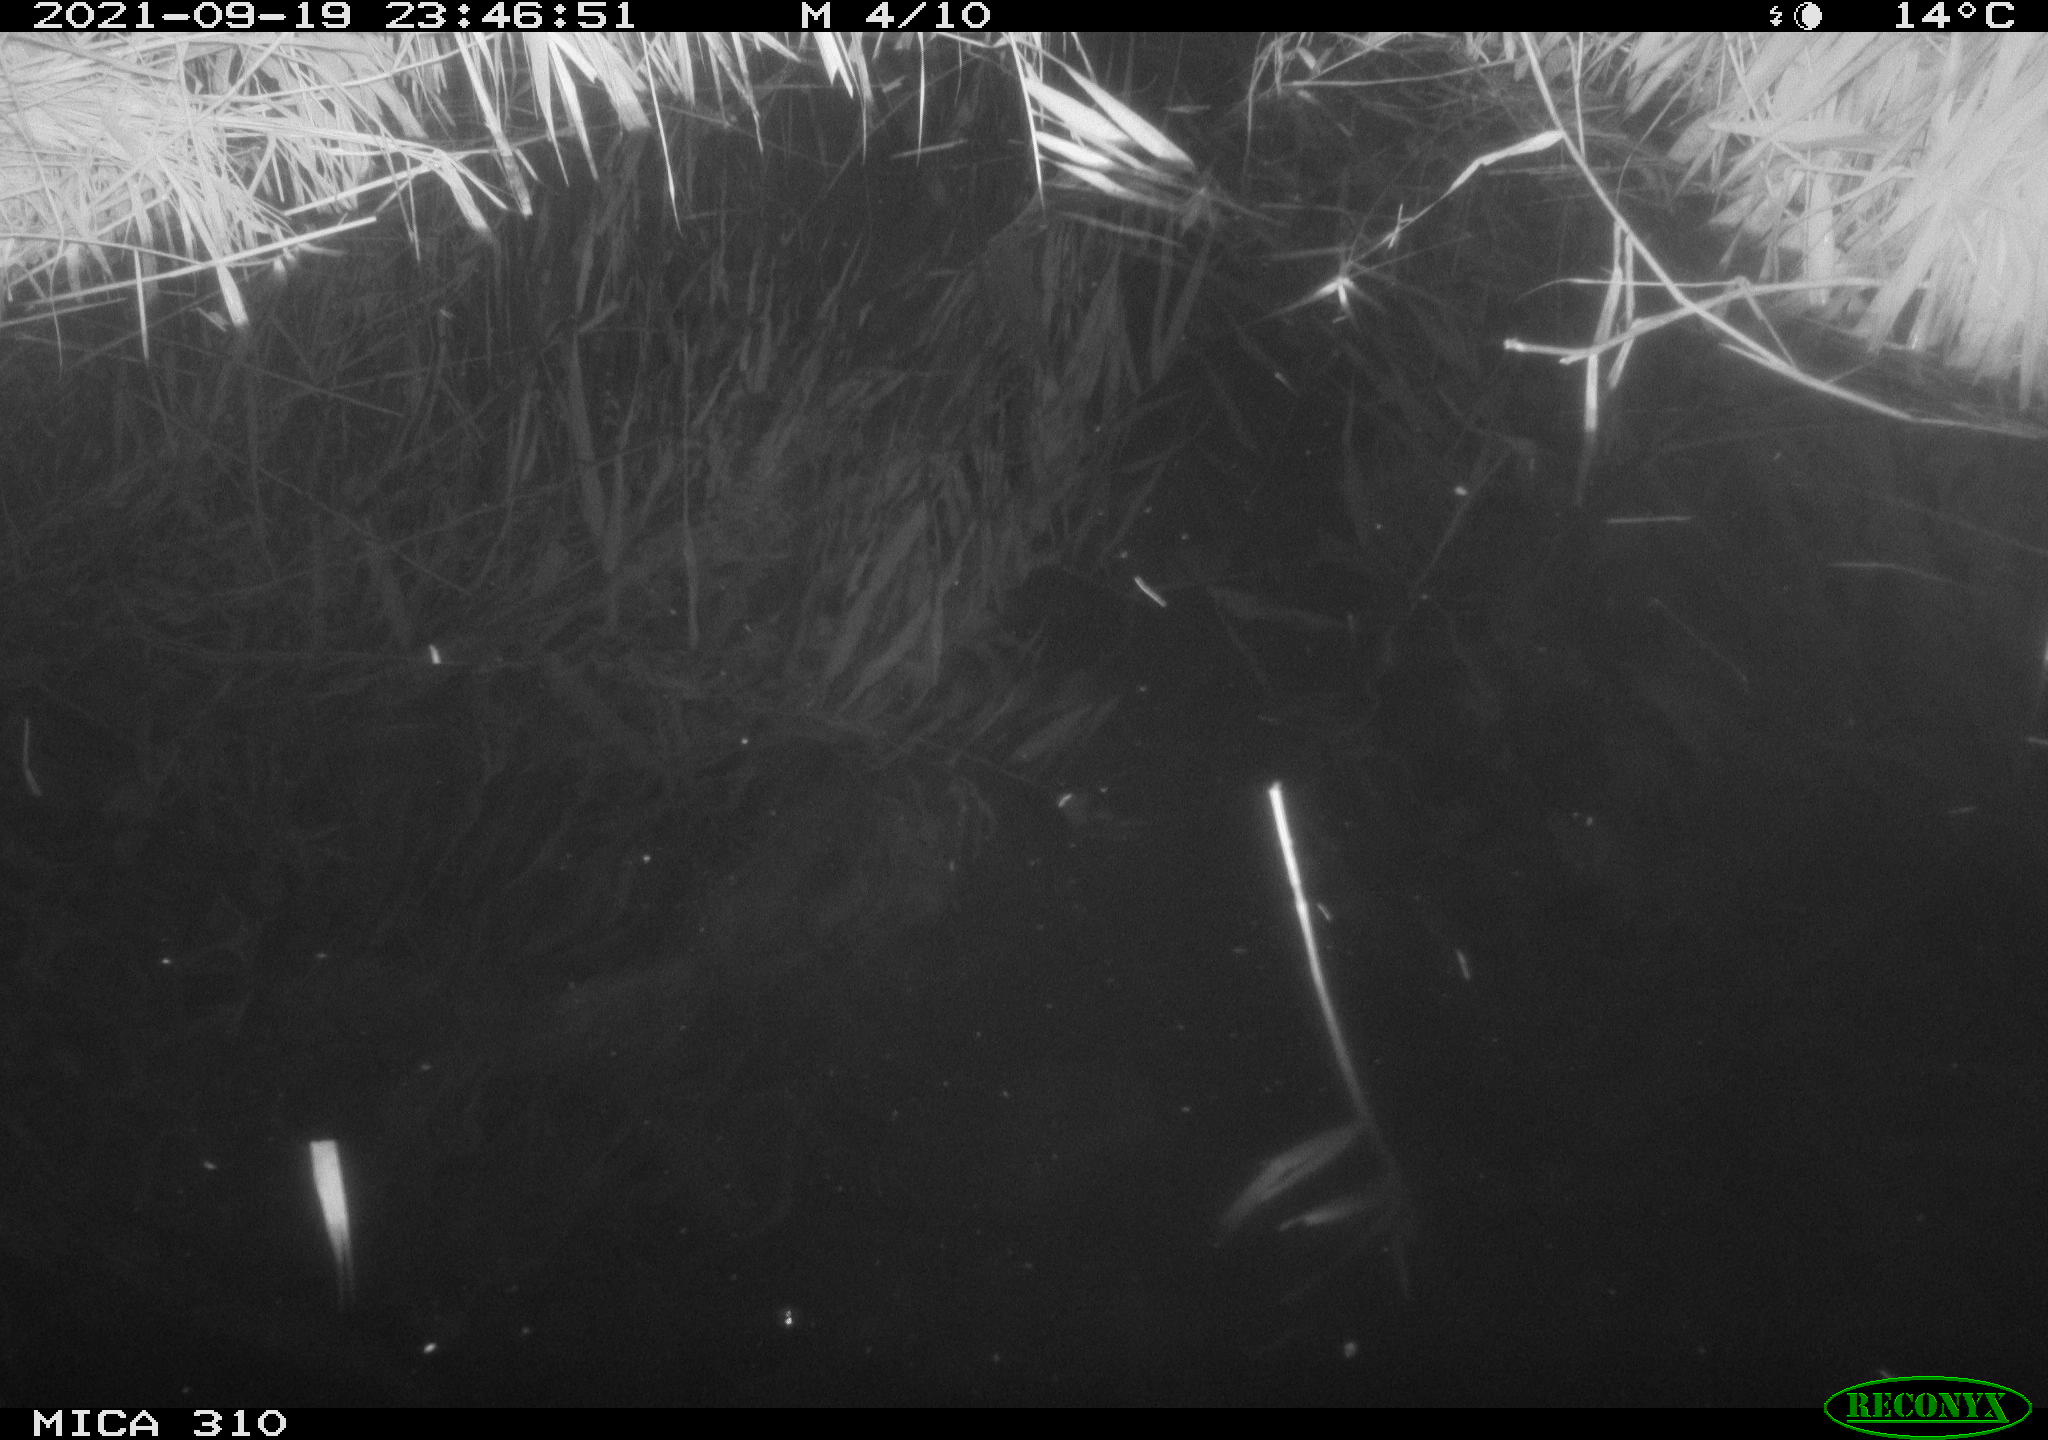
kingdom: Animalia
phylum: Chordata
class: Aves
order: Anseriformes
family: Anatidae
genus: Mareca
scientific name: Mareca strepera
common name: Gadwall
